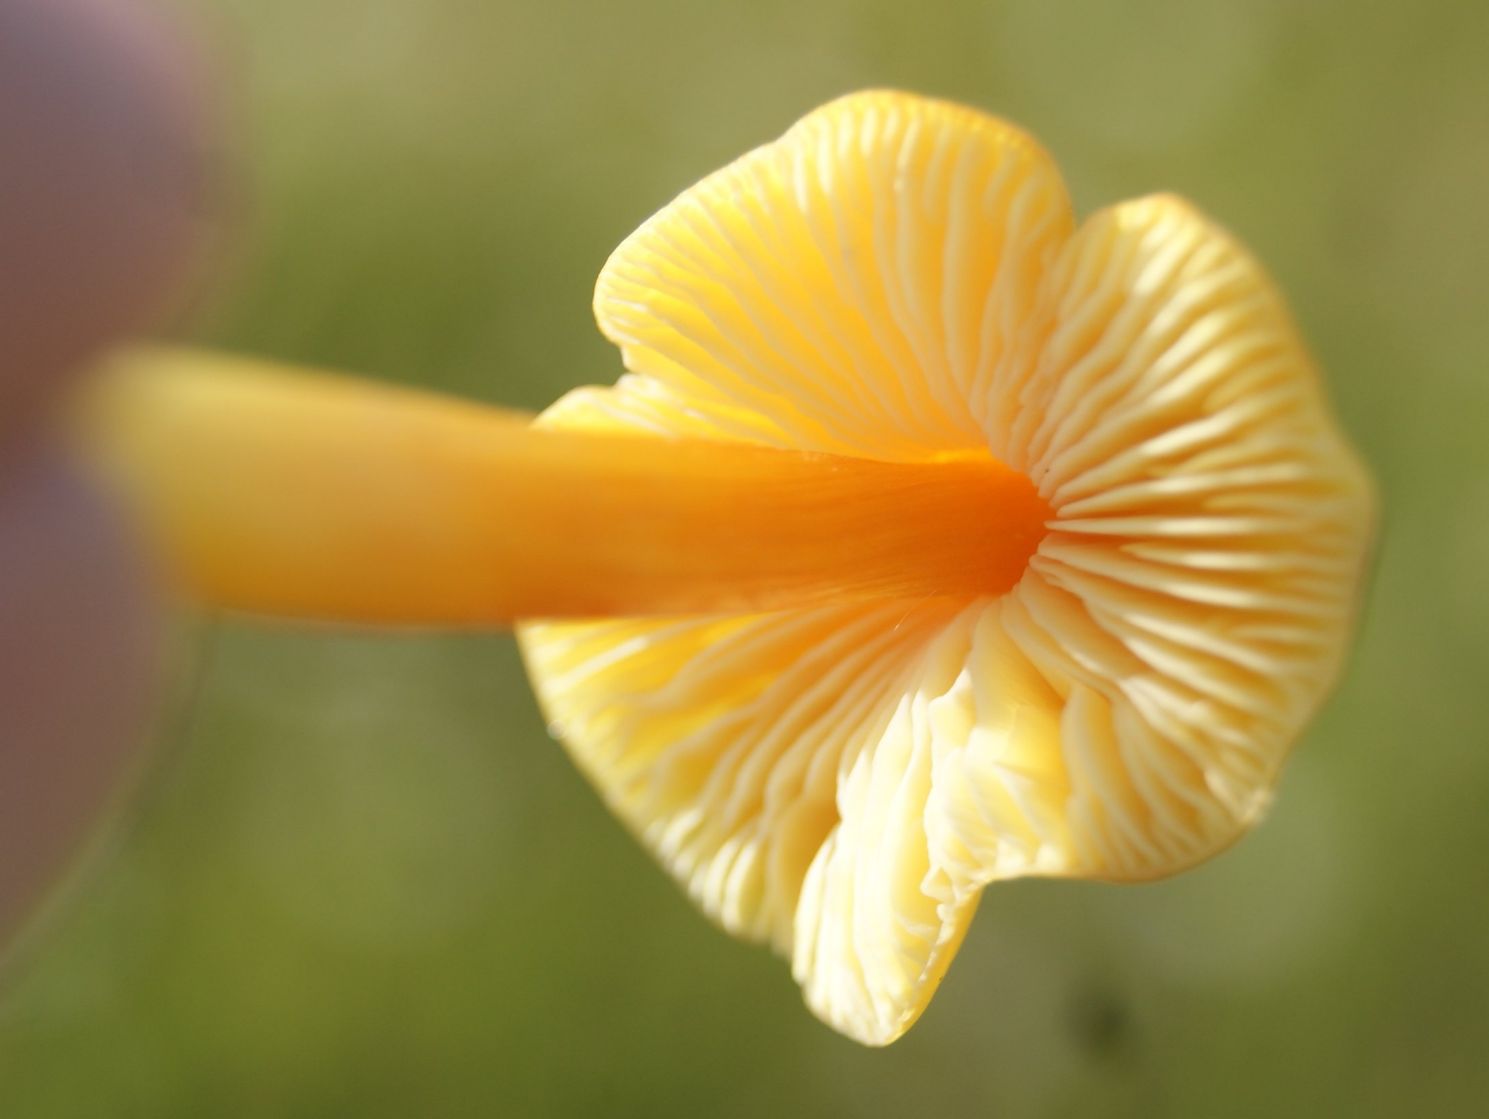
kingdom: Fungi
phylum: Basidiomycota
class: Agaricomycetes
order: Agaricales
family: Hygrophoraceae
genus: Hygrocybe
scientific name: Hygrocybe acutoconica
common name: spidspuklet vokshat
